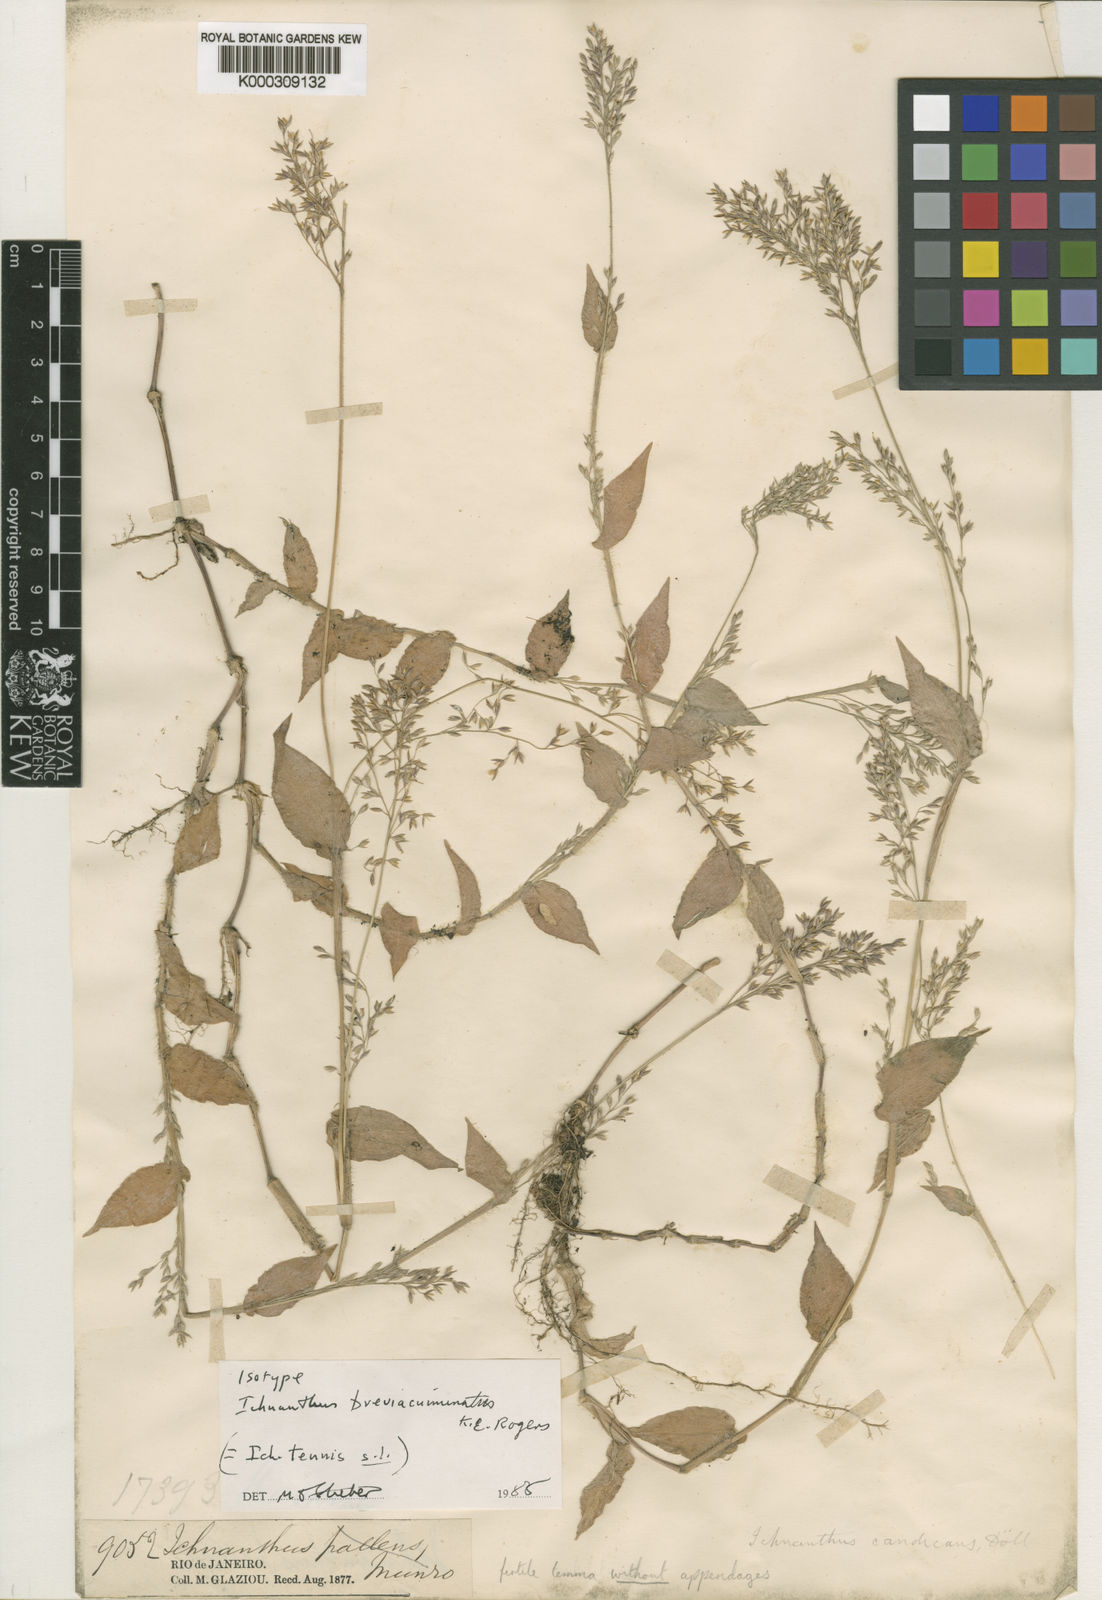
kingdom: Plantae
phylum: Tracheophyta
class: Liliopsida
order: Poales
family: Poaceae
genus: Ichnanthus
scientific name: Ichnanthus tenuis
